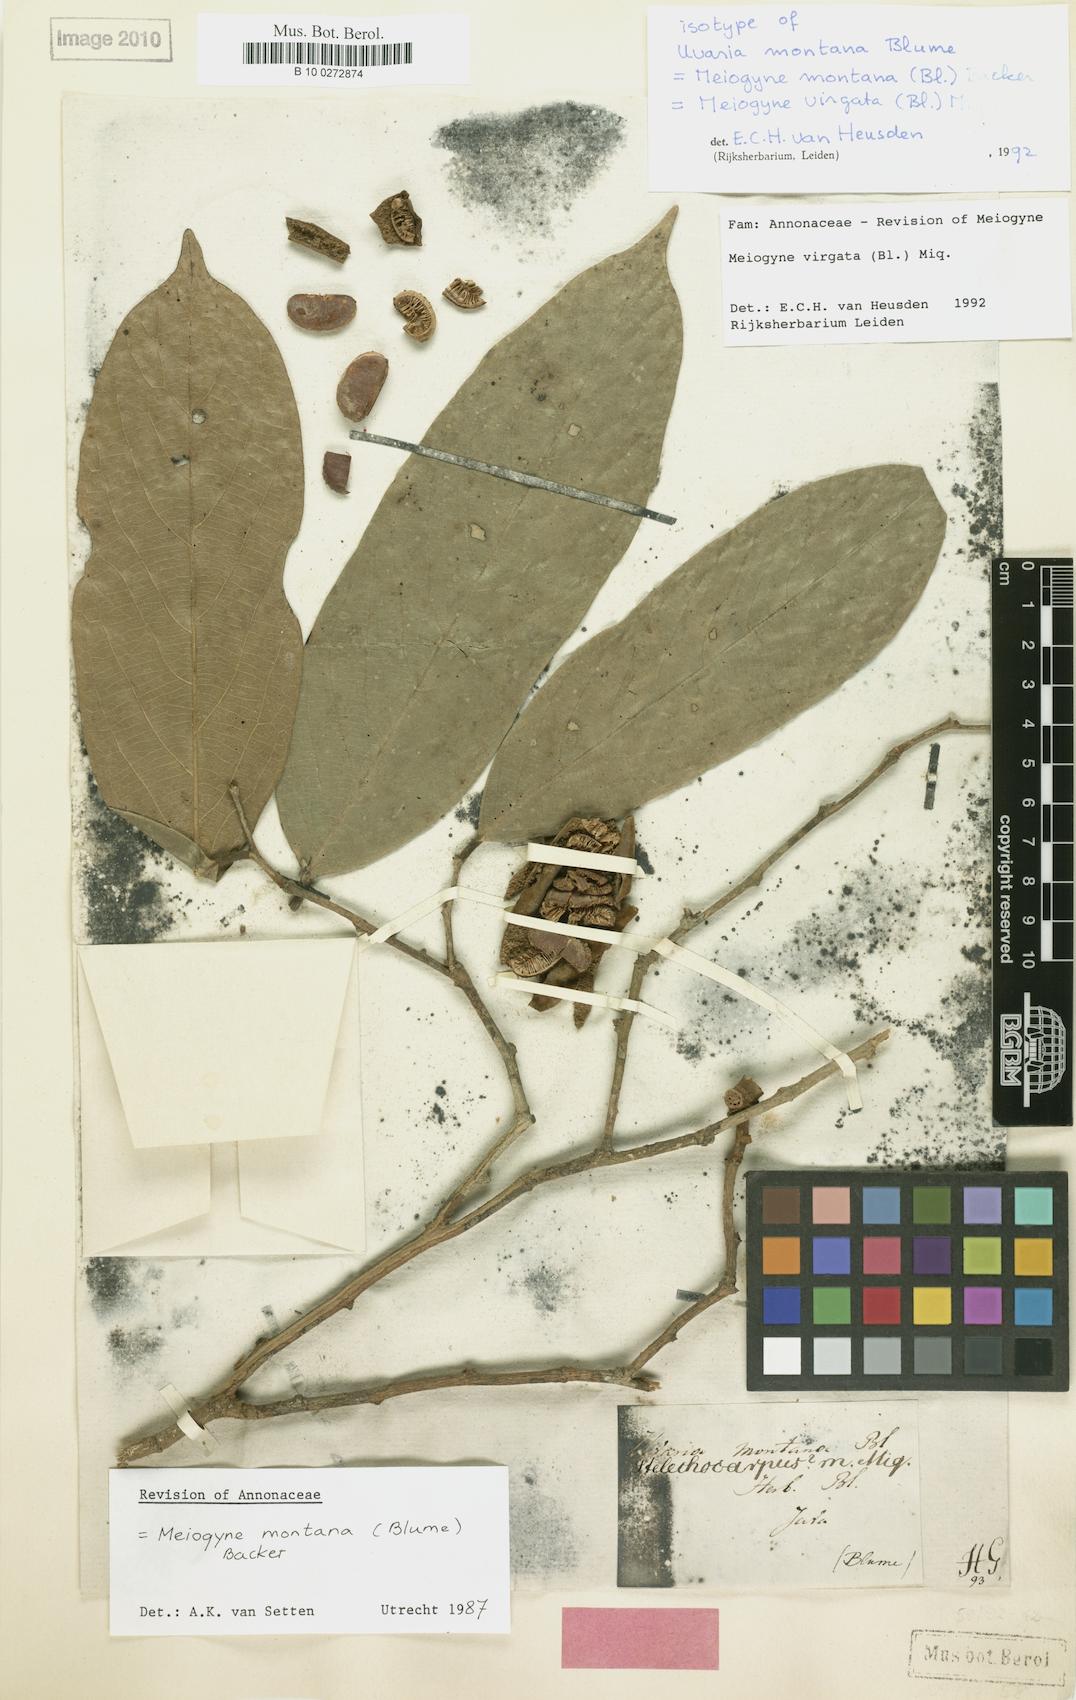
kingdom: Plantae
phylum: Tracheophyta
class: Magnoliopsida
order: Magnoliales
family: Annonaceae
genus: Meiogyne
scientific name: Meiogyne virgata
